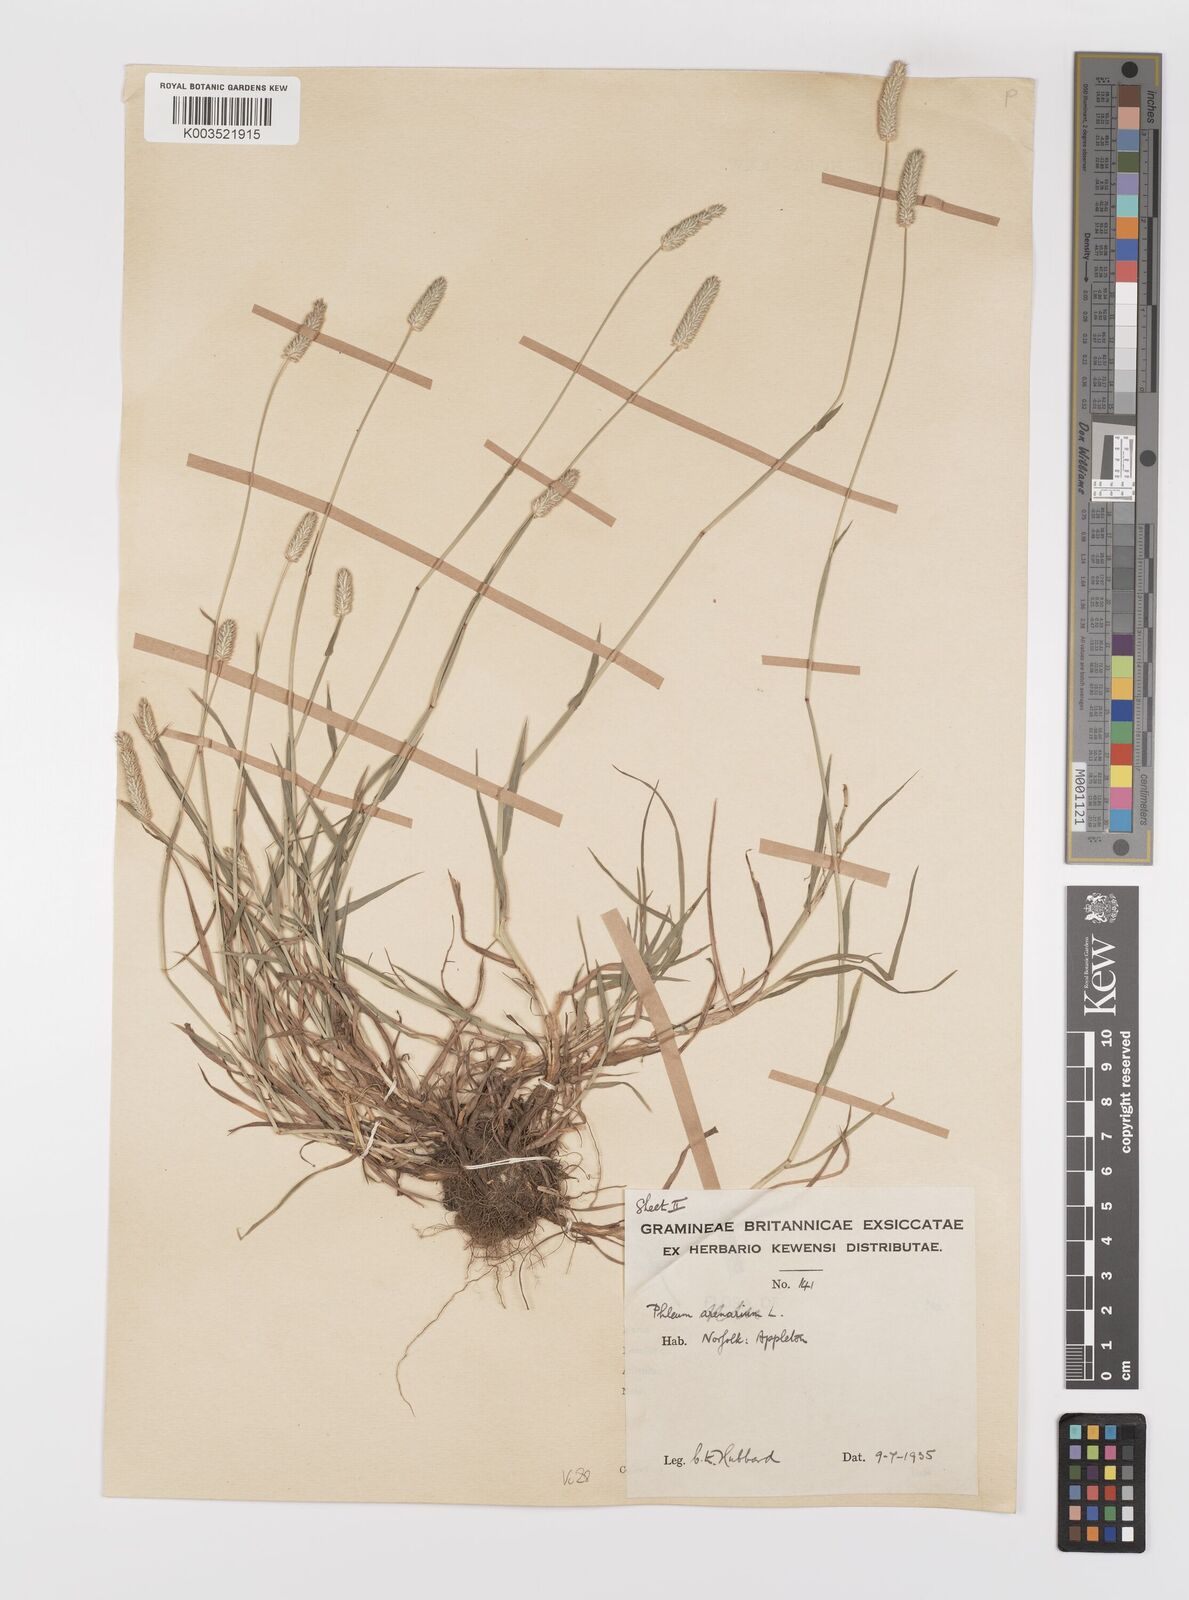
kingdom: Plantae
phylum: Tracheophyta
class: Liliopsida
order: Poales
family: Poaceae
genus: Phleum
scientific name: Phleum bertolonii
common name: Smaller cat's-tail
